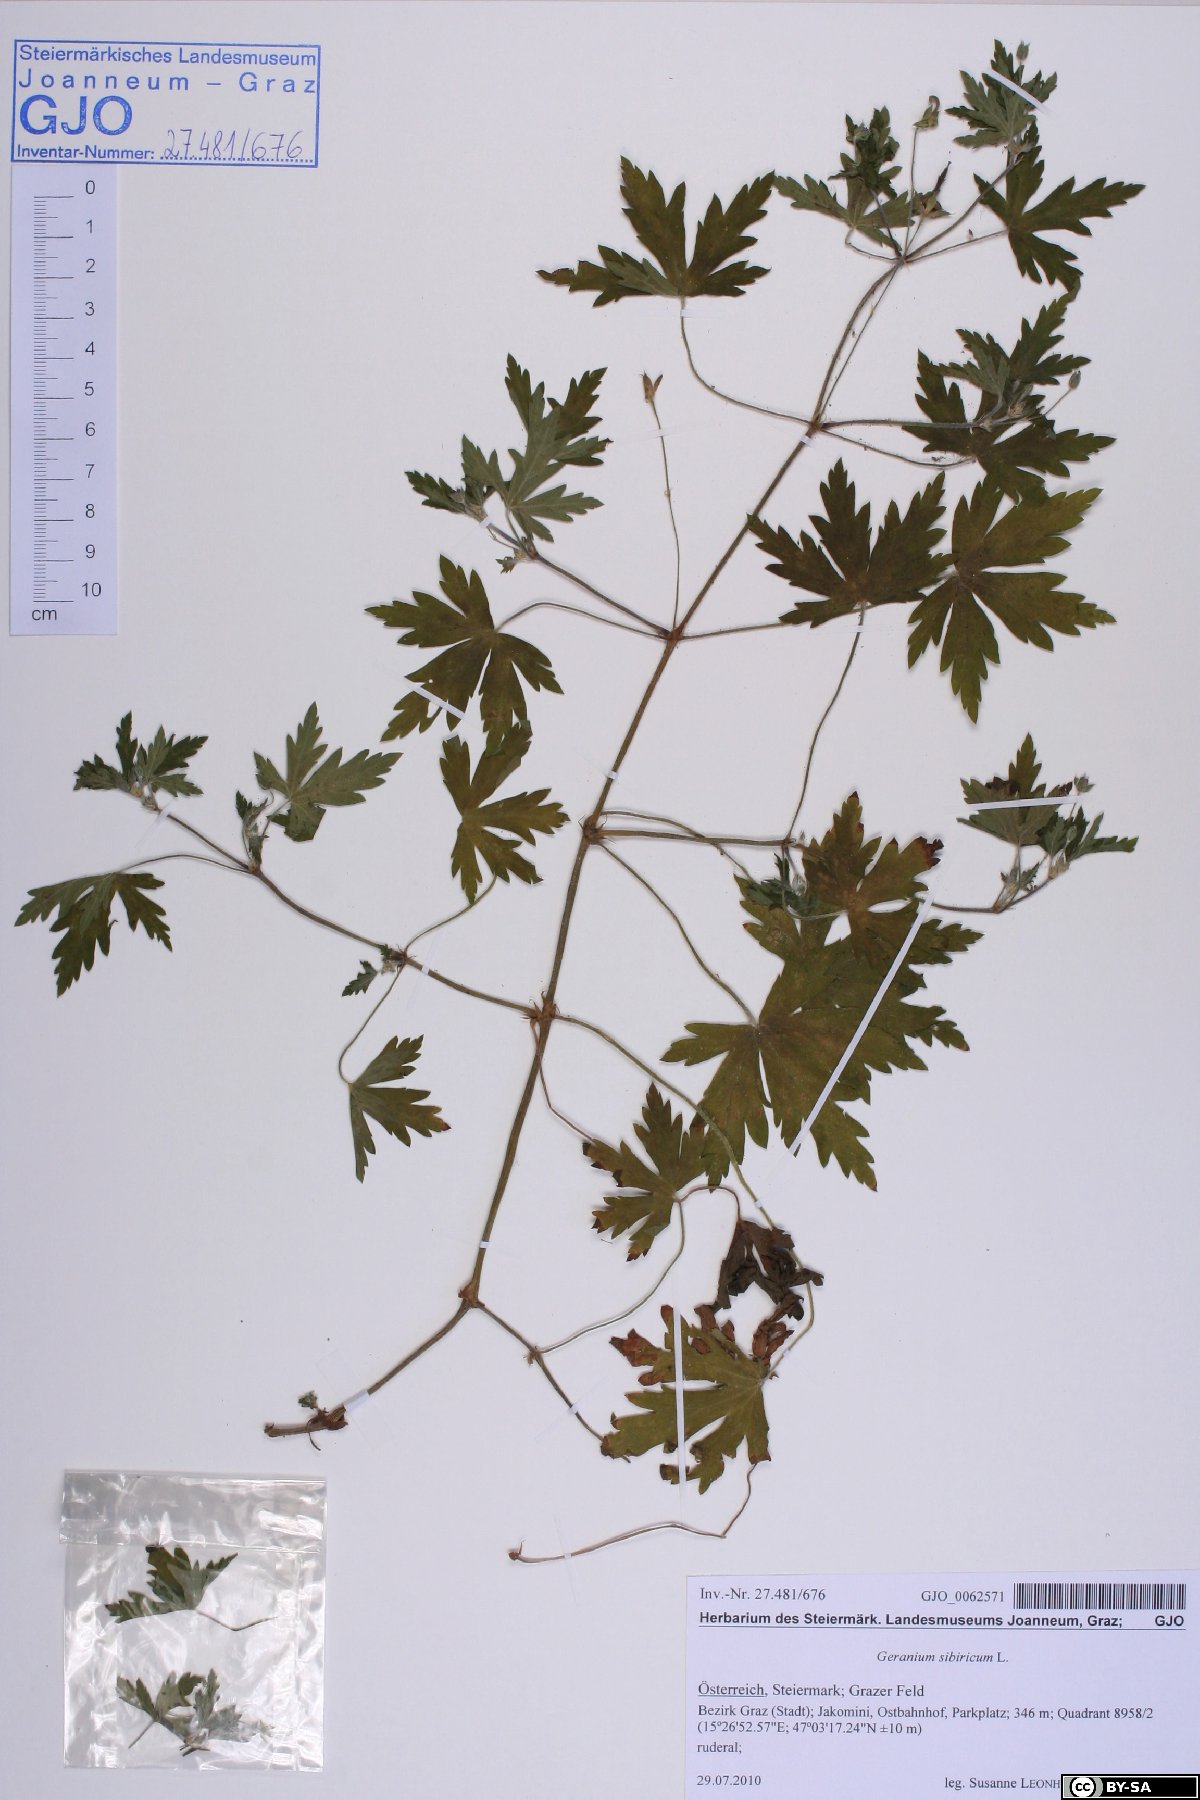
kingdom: Plantae
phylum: Tracheophyta
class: Magnoliopsida
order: Geraniales
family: Geraniaceae
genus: Geranium
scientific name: Geranium sibiricum
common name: Siberian crane's-bill
